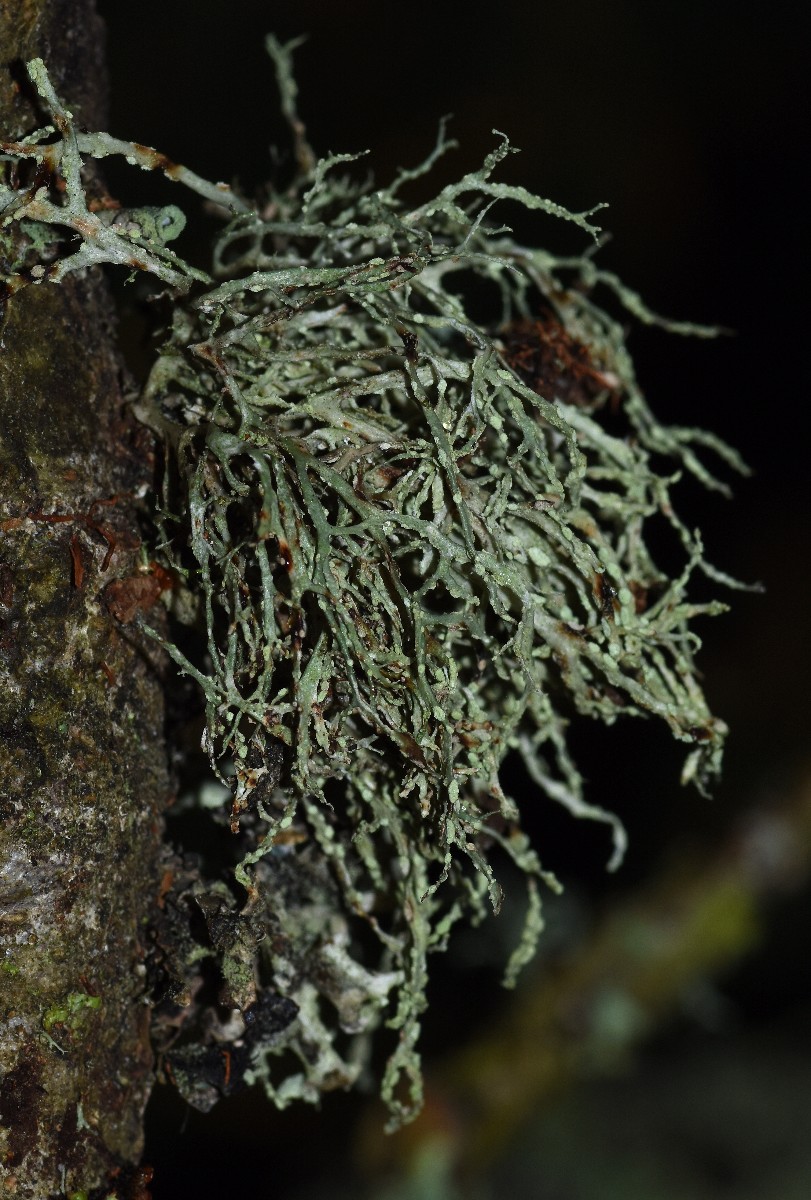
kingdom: Fungi
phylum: Ascomycota
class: Lecanoromycetes
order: Lecanorales
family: Ramalinaceae
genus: Ramalina
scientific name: Ramalina farinacea
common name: melet grenlav
